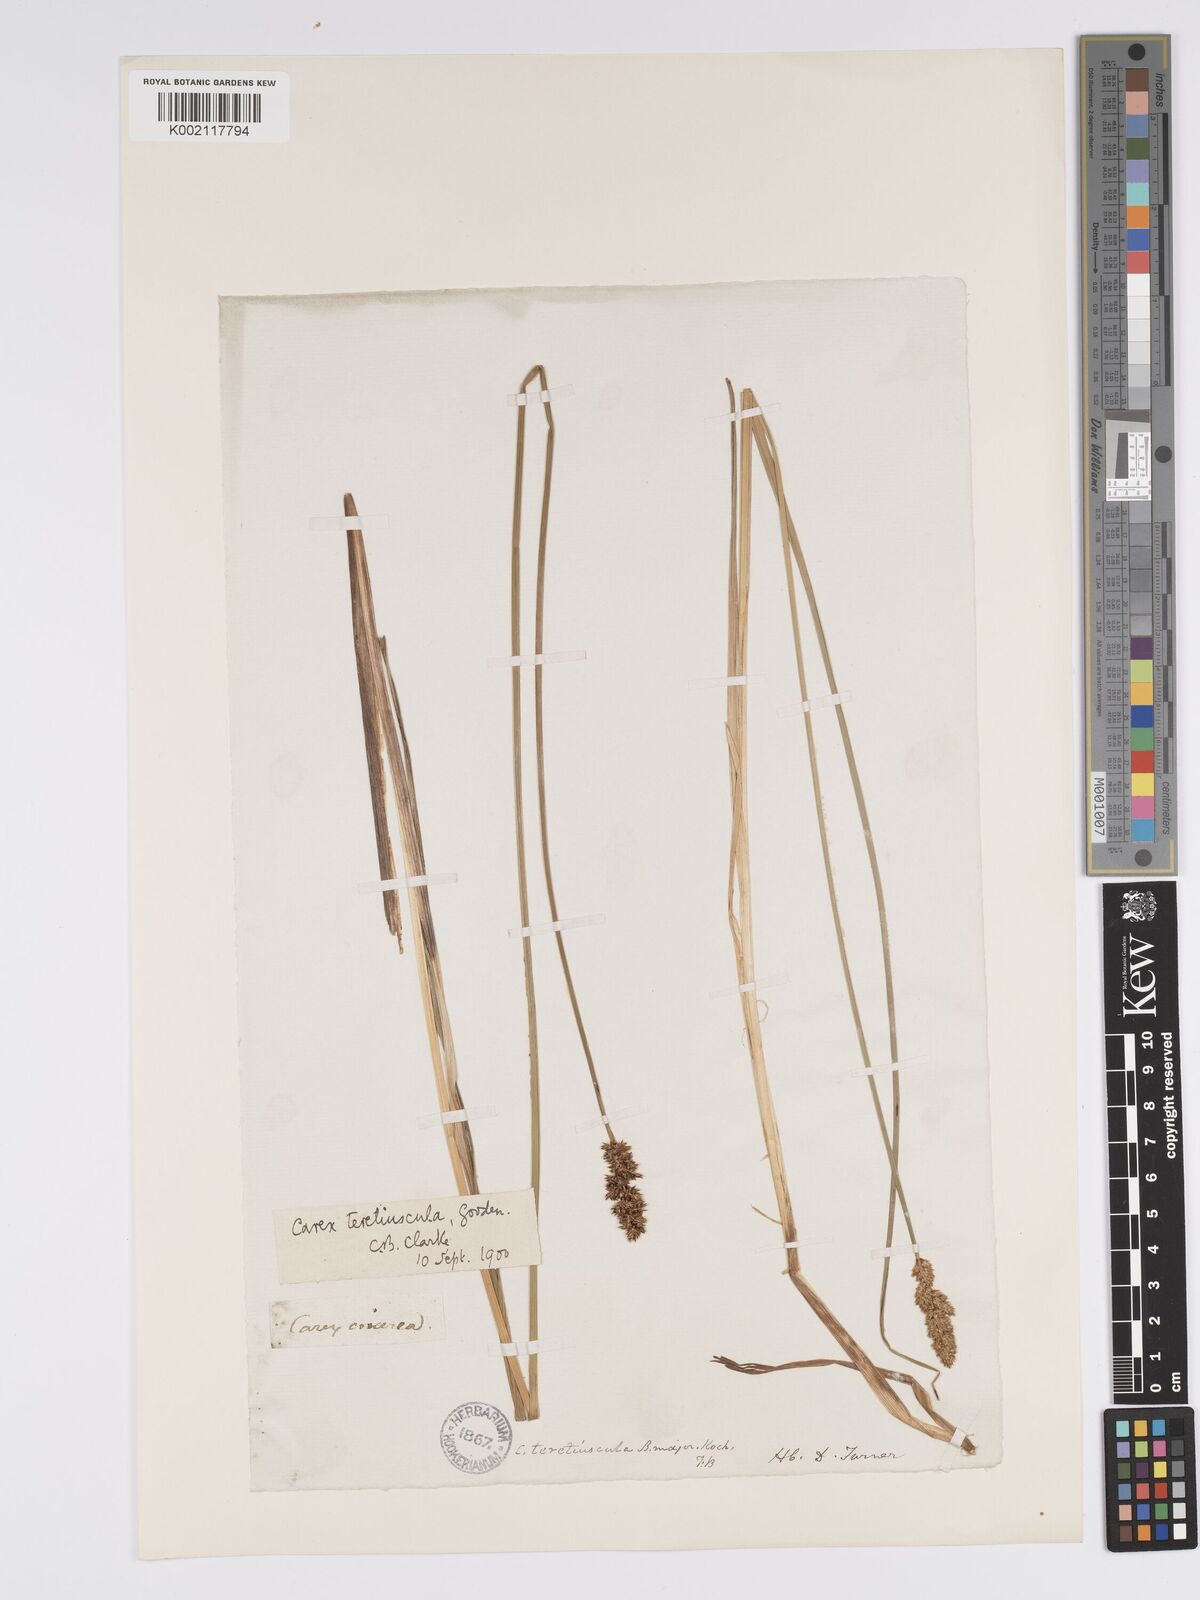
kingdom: Plantae
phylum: Tracheophyta
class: Liliopsida
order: Poales
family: Cyperaceae
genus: Carex
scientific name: Carex diandra
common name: Lesser tussock-sedge
